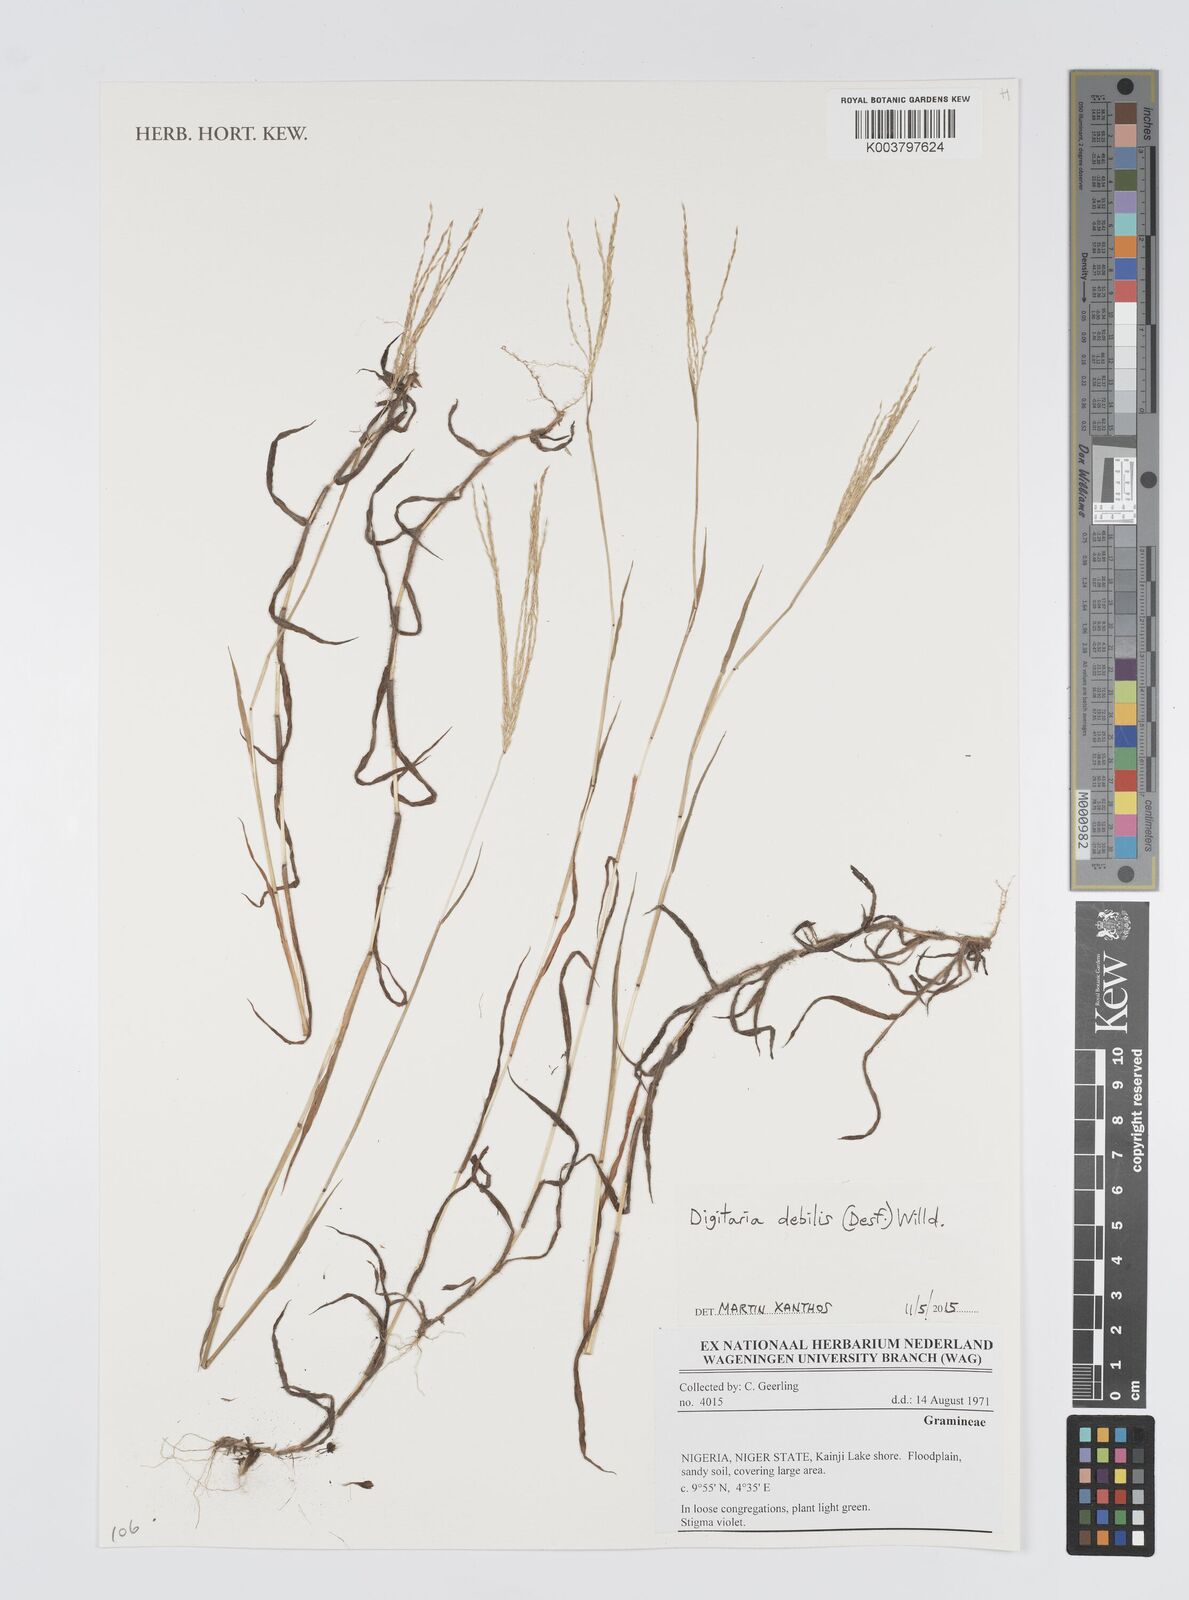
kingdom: Plantae
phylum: Tracheophyta
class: Liliopsida
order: Poales
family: Poaceae
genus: Digitaria
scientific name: Digitaria debilis
